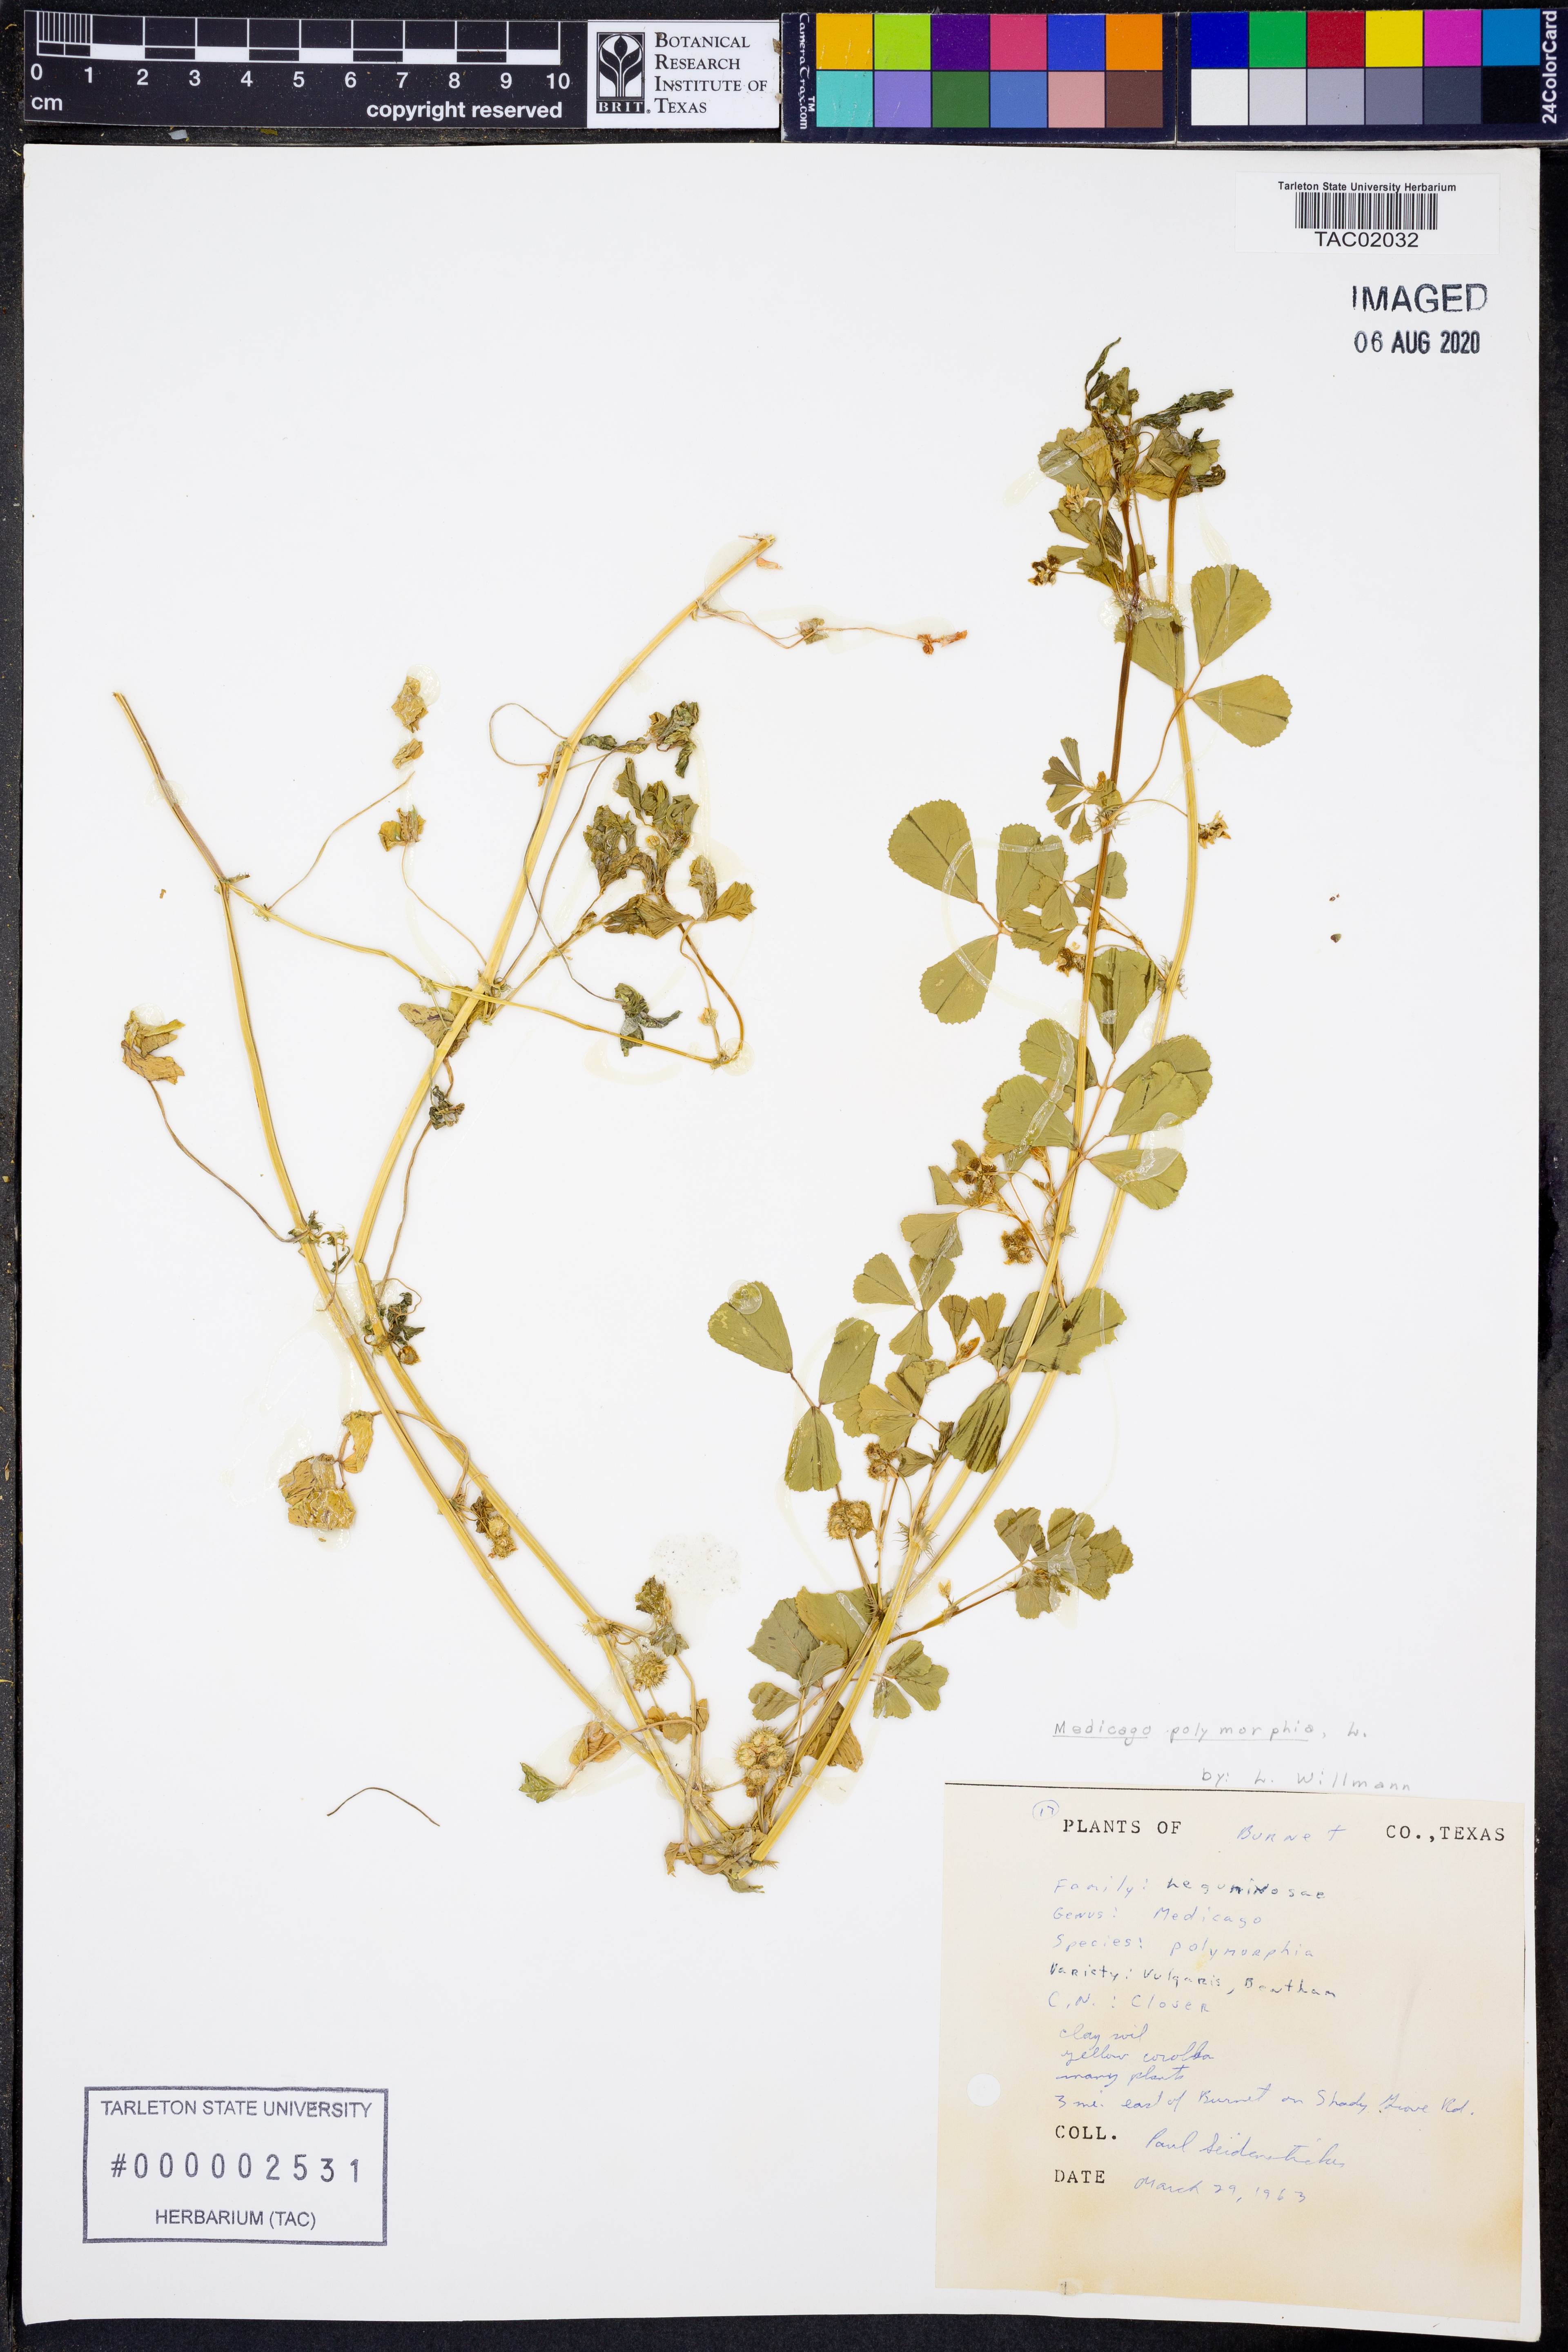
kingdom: Plantae
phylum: Tracheophyta
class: Magnoliopsida
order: Fabales
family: Fabaceae
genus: Medicago
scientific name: Medicago polymorpha
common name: Burclover
